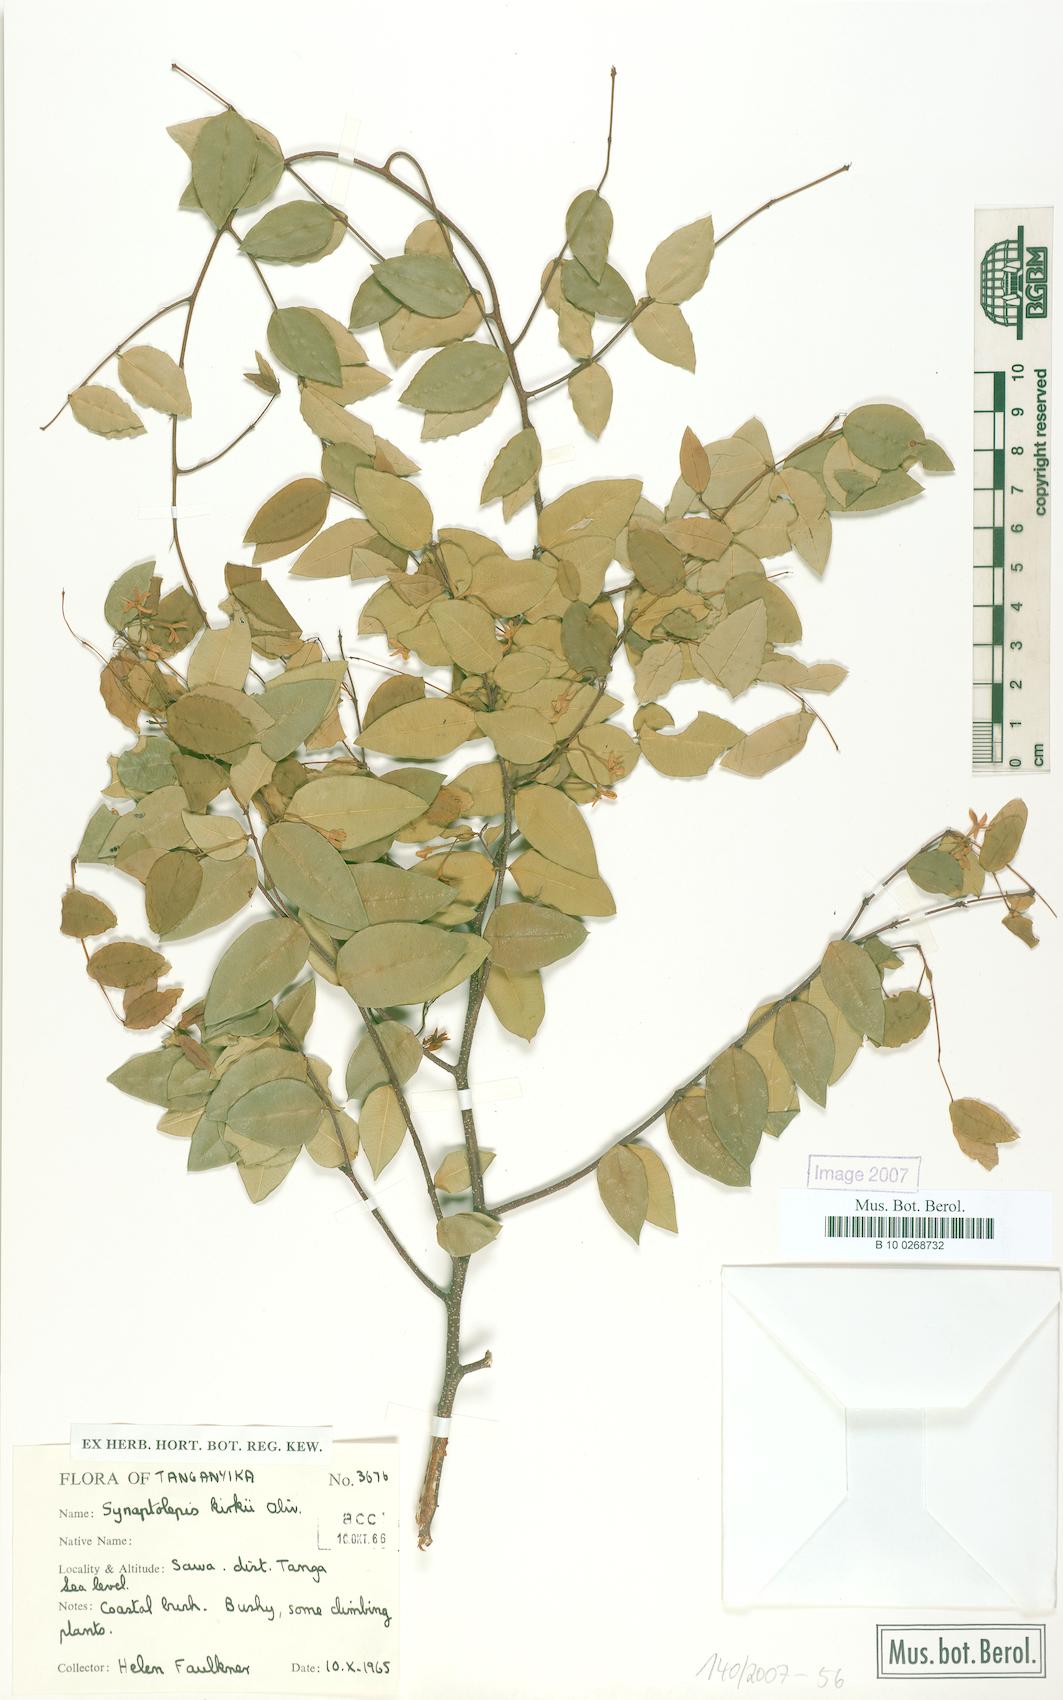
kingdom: Plantae
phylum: Tracheophyta
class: Magnoliopsida
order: Malvales
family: Thymelaeaceae
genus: Synaptolepis
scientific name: Synaptolepis kirkii
